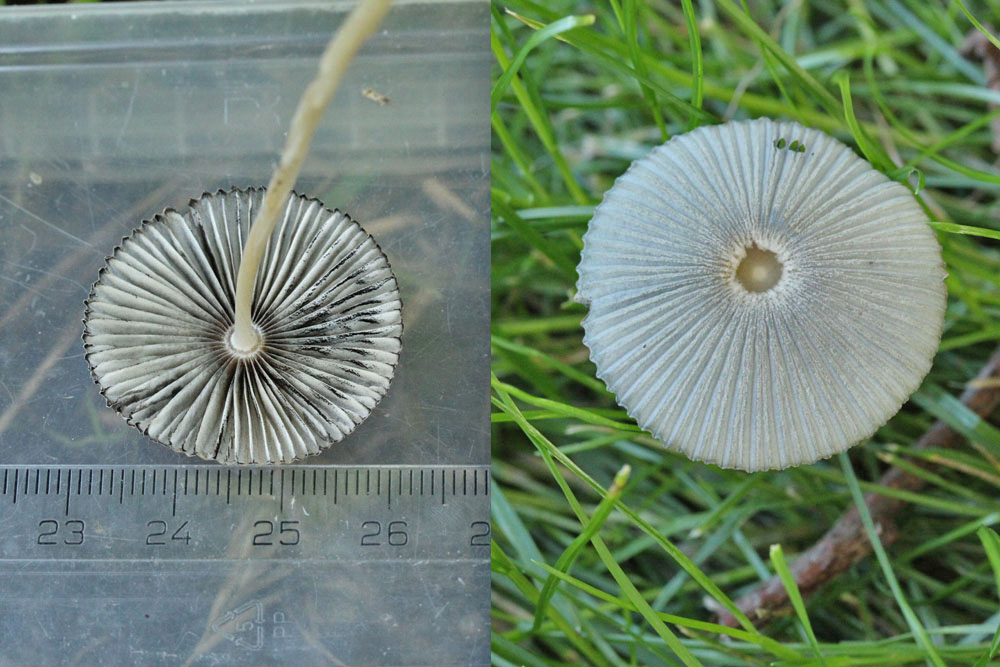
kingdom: Fungi
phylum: Basidiomycota
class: Agaricomycetes
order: Agaricales
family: Psathyrellaceae
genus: Parasola
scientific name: Parasola lactea
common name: glat hjulhat
